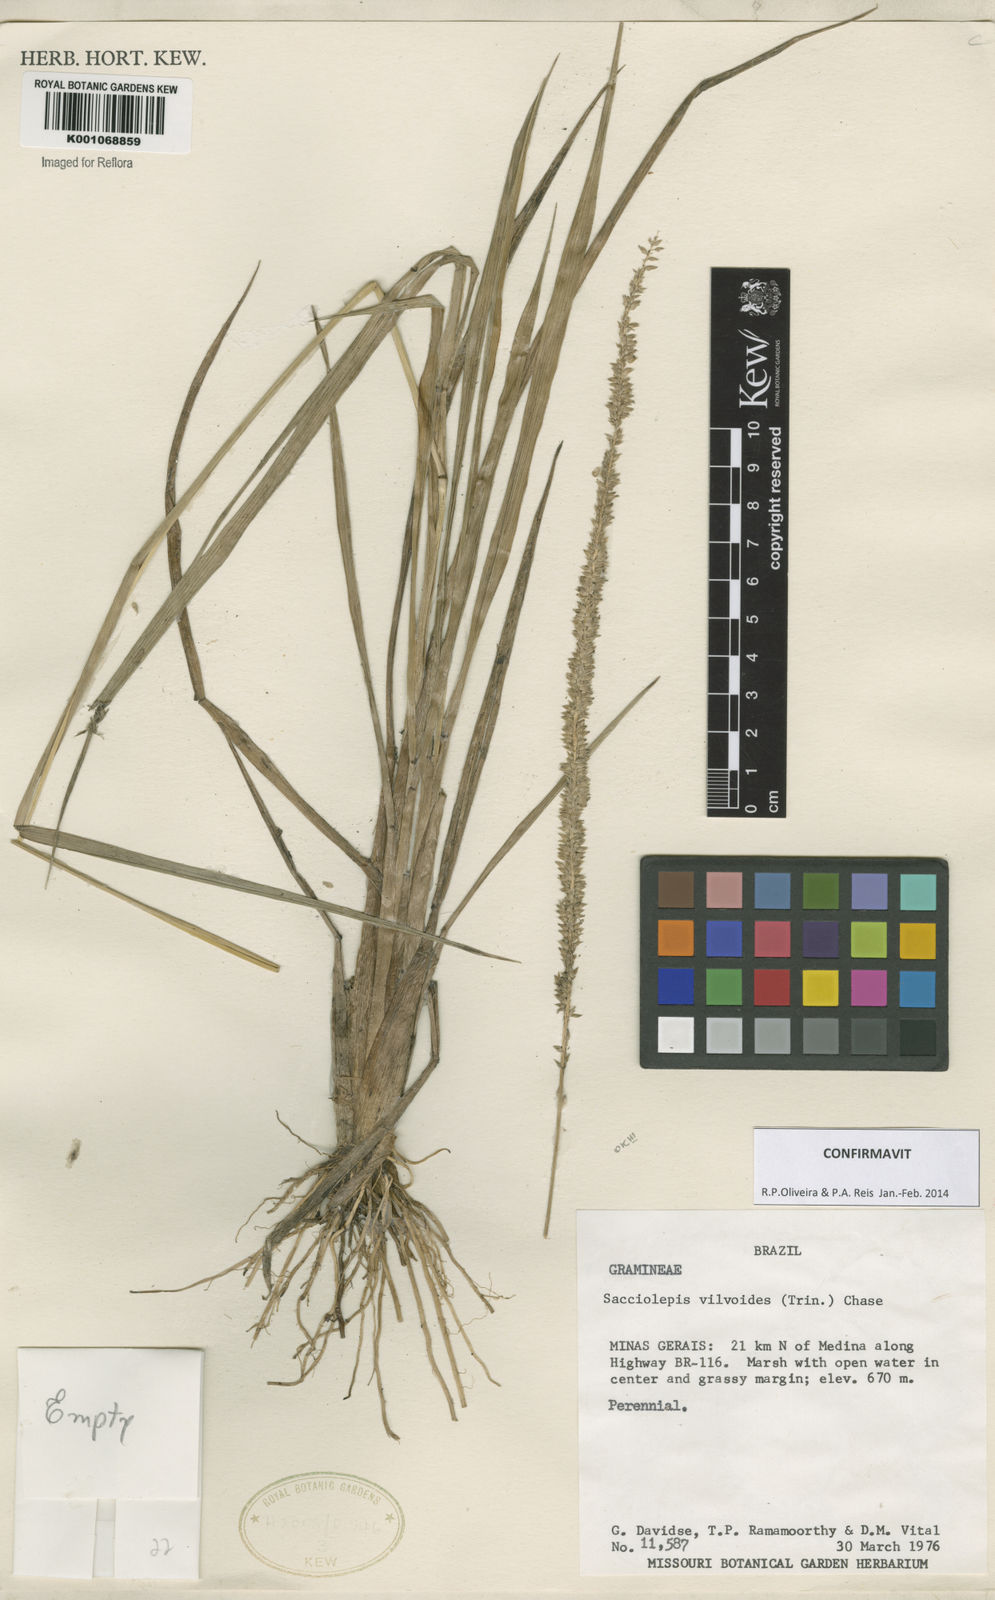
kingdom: Plantae
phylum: Tracheophyta
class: Liliopsida
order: Poales
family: Poaceae
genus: Sacciolepis
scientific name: Sacciolepis vilvoides
